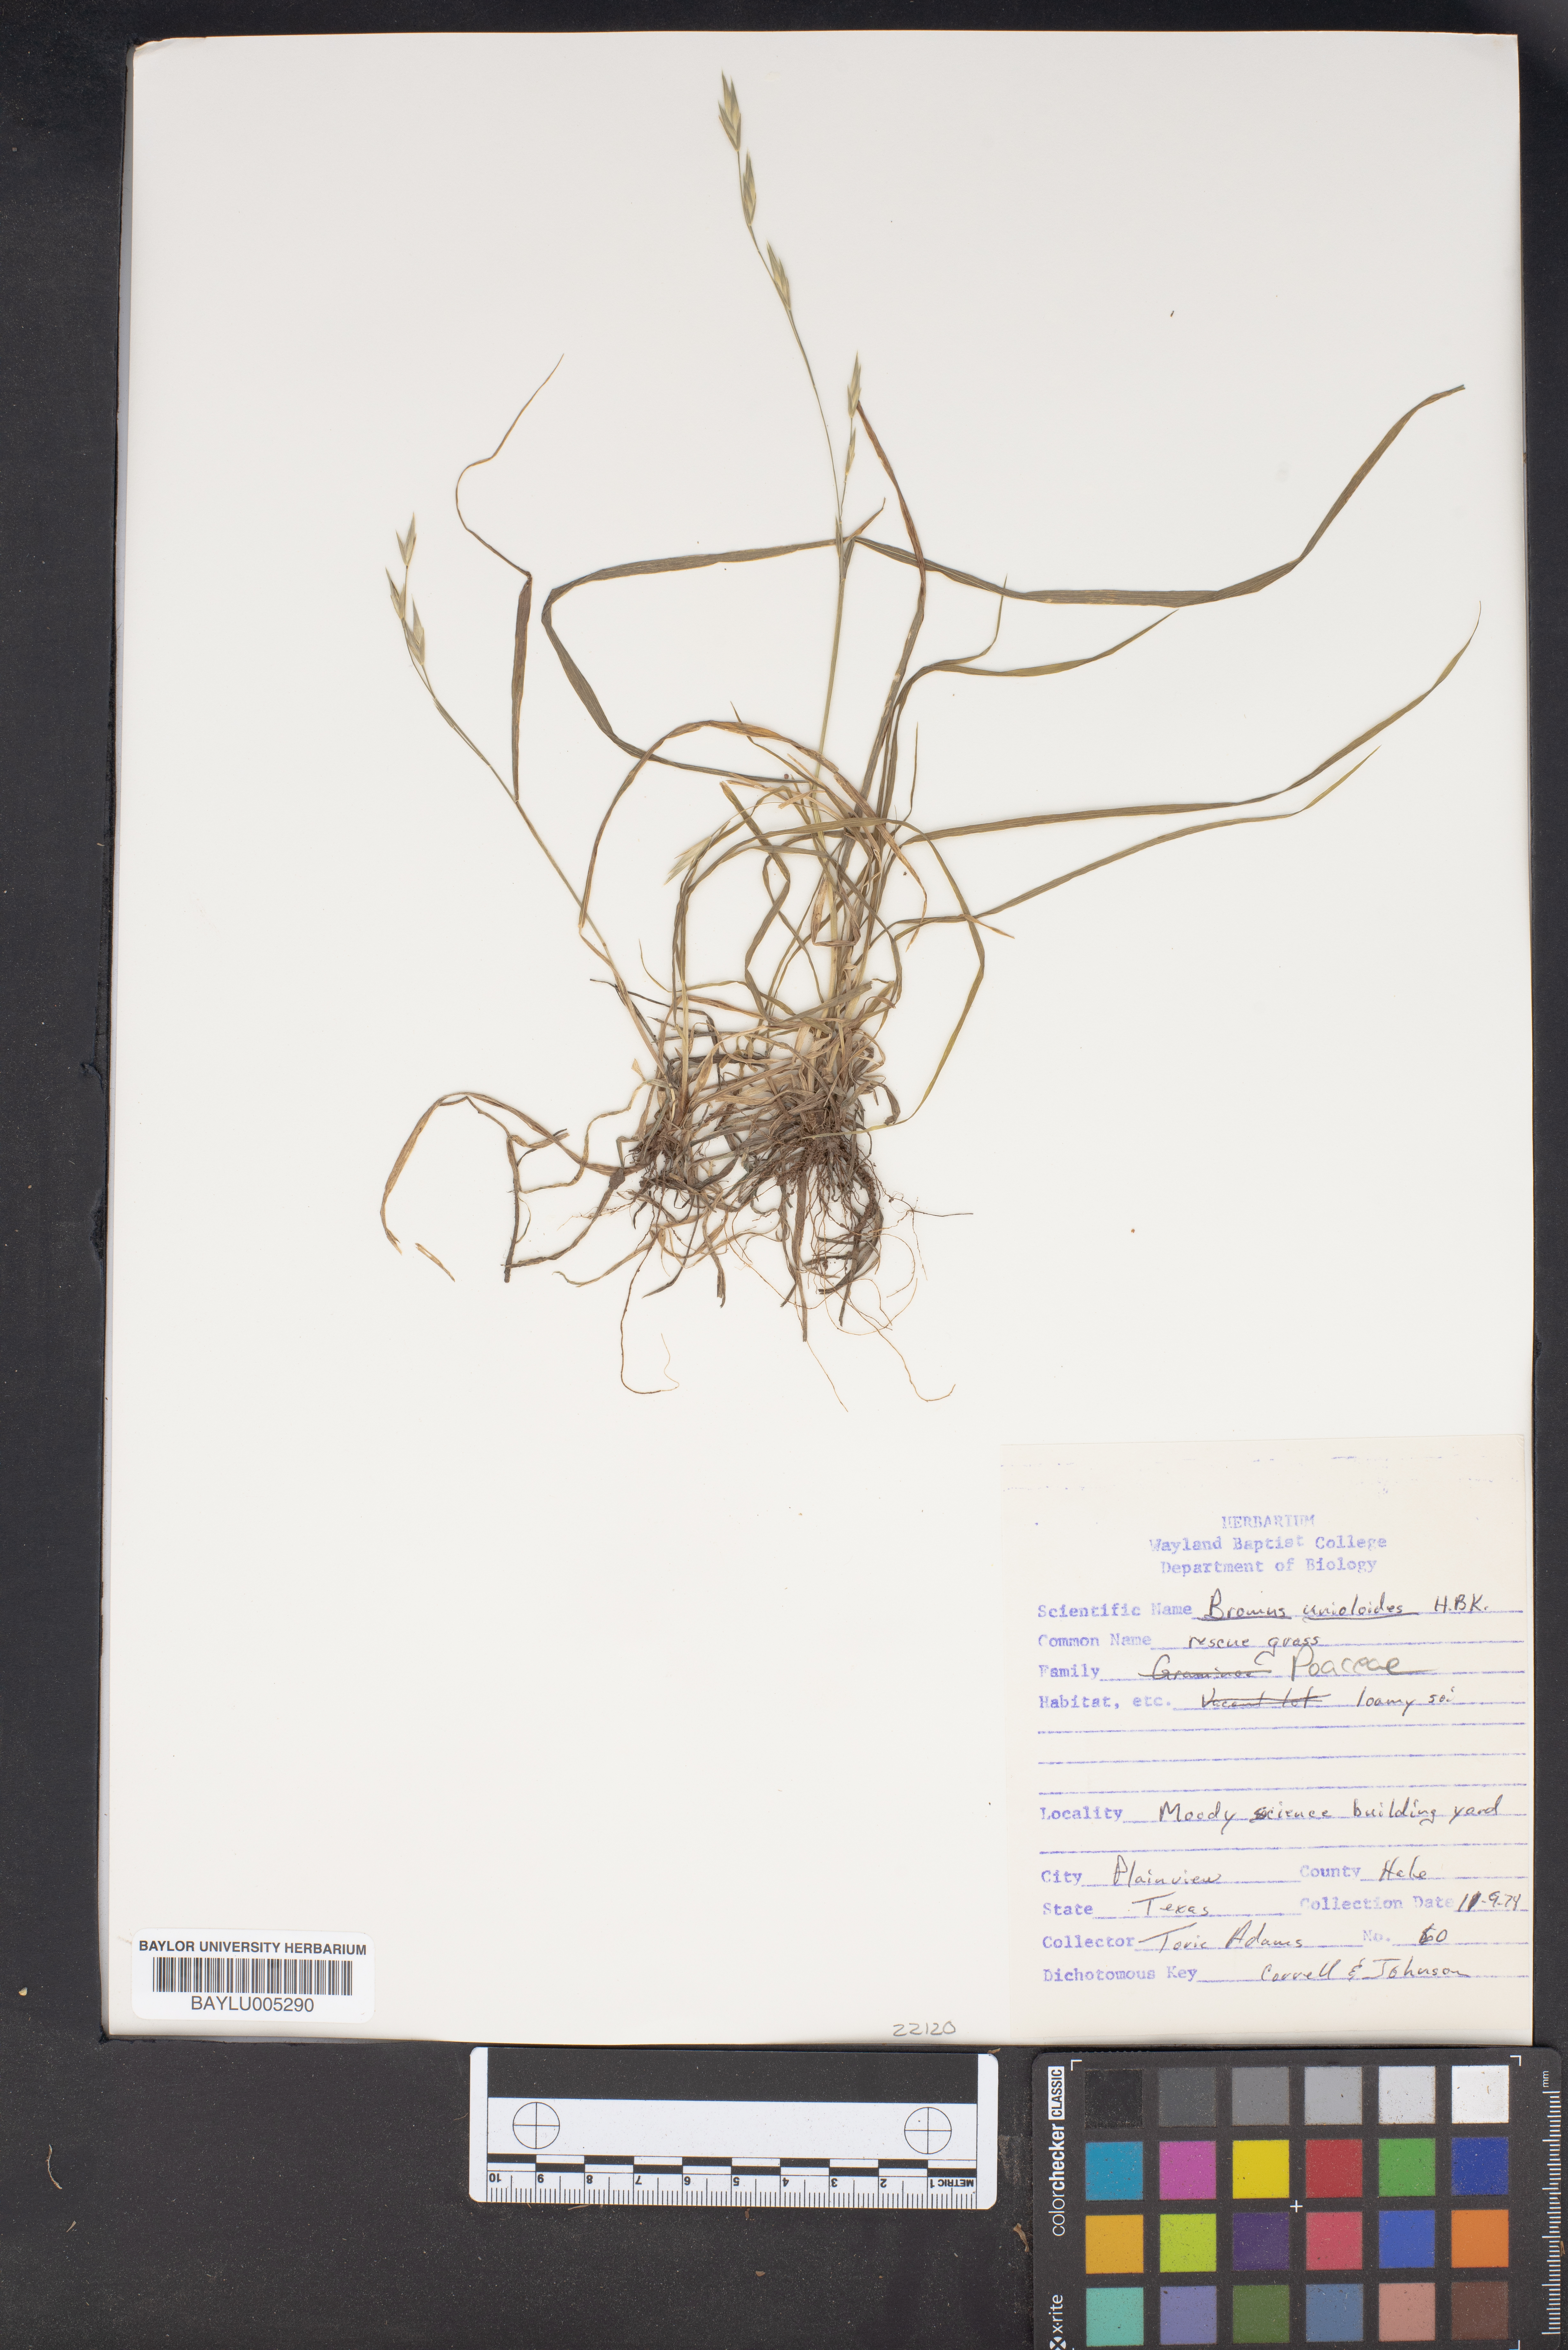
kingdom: Plantae
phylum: Tracheophyta
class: Liliopsida
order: Poales
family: Poaceae
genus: Bromus
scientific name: Bromus catharticus
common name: Rescuegrass
